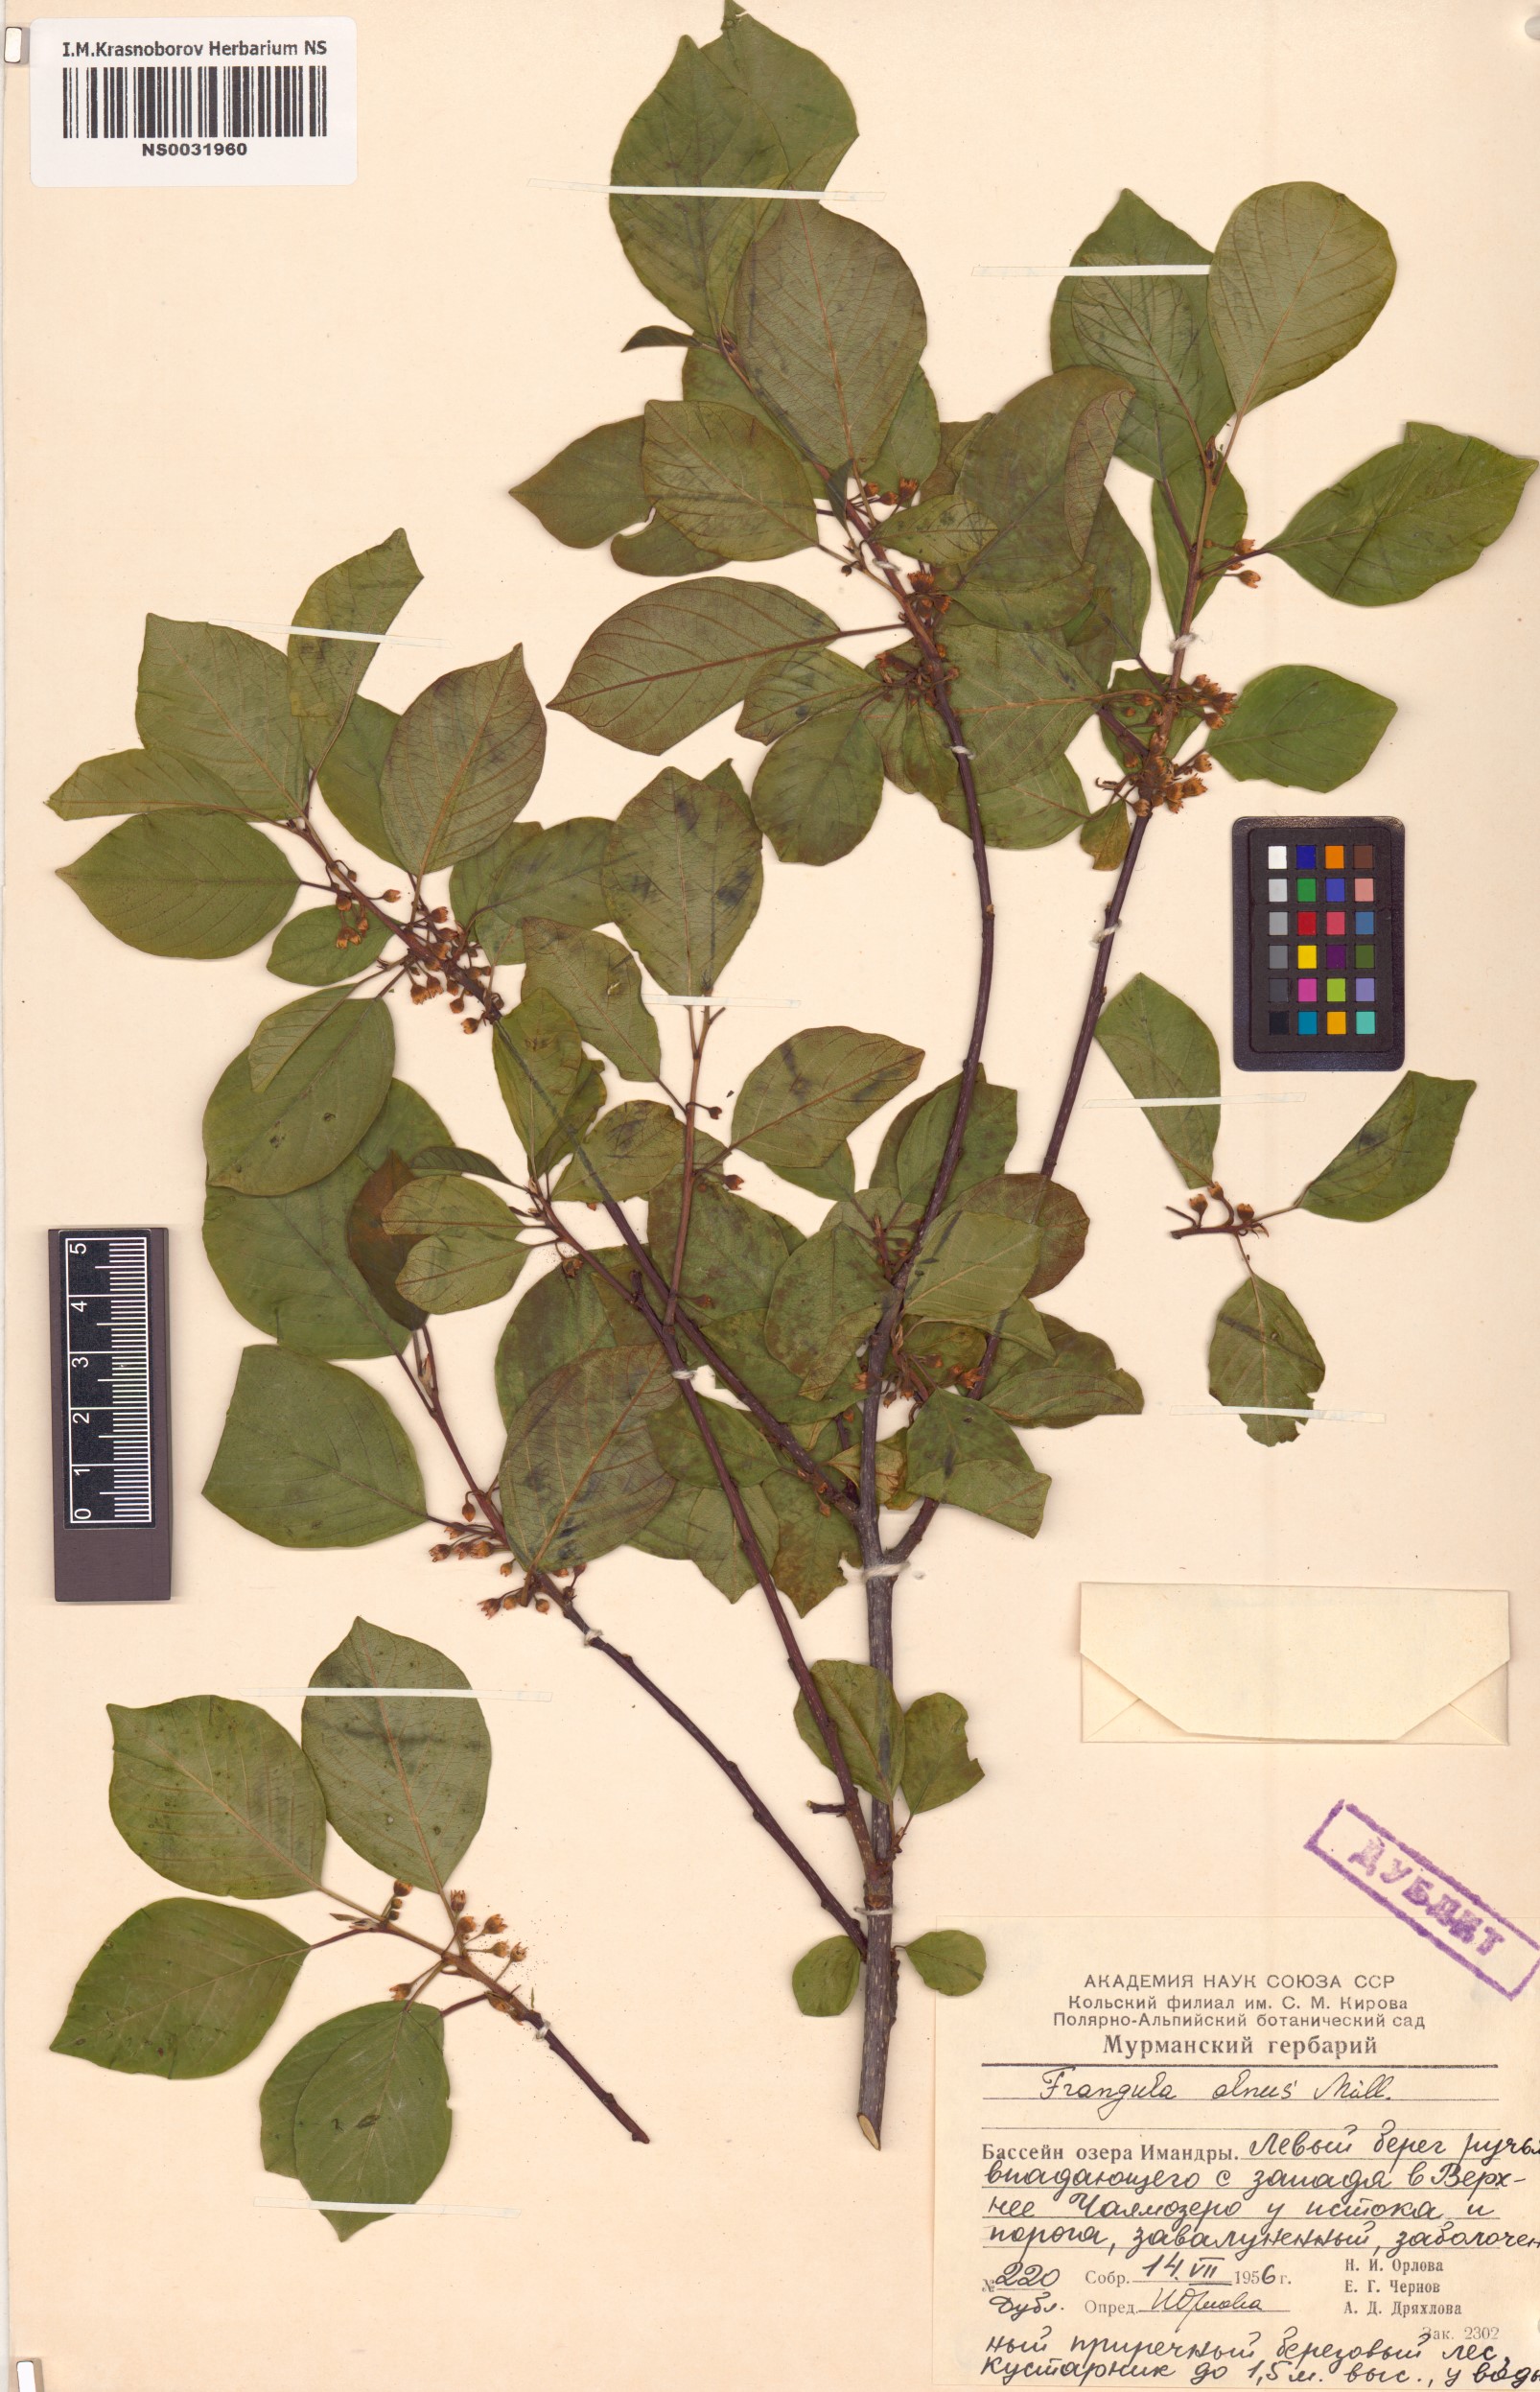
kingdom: Plantae
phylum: Tracheophyta
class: Magnoliopsida
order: Rosales
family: Rhamnaceae
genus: Frangula
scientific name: Frangula alnus
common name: Alder buckthorn
